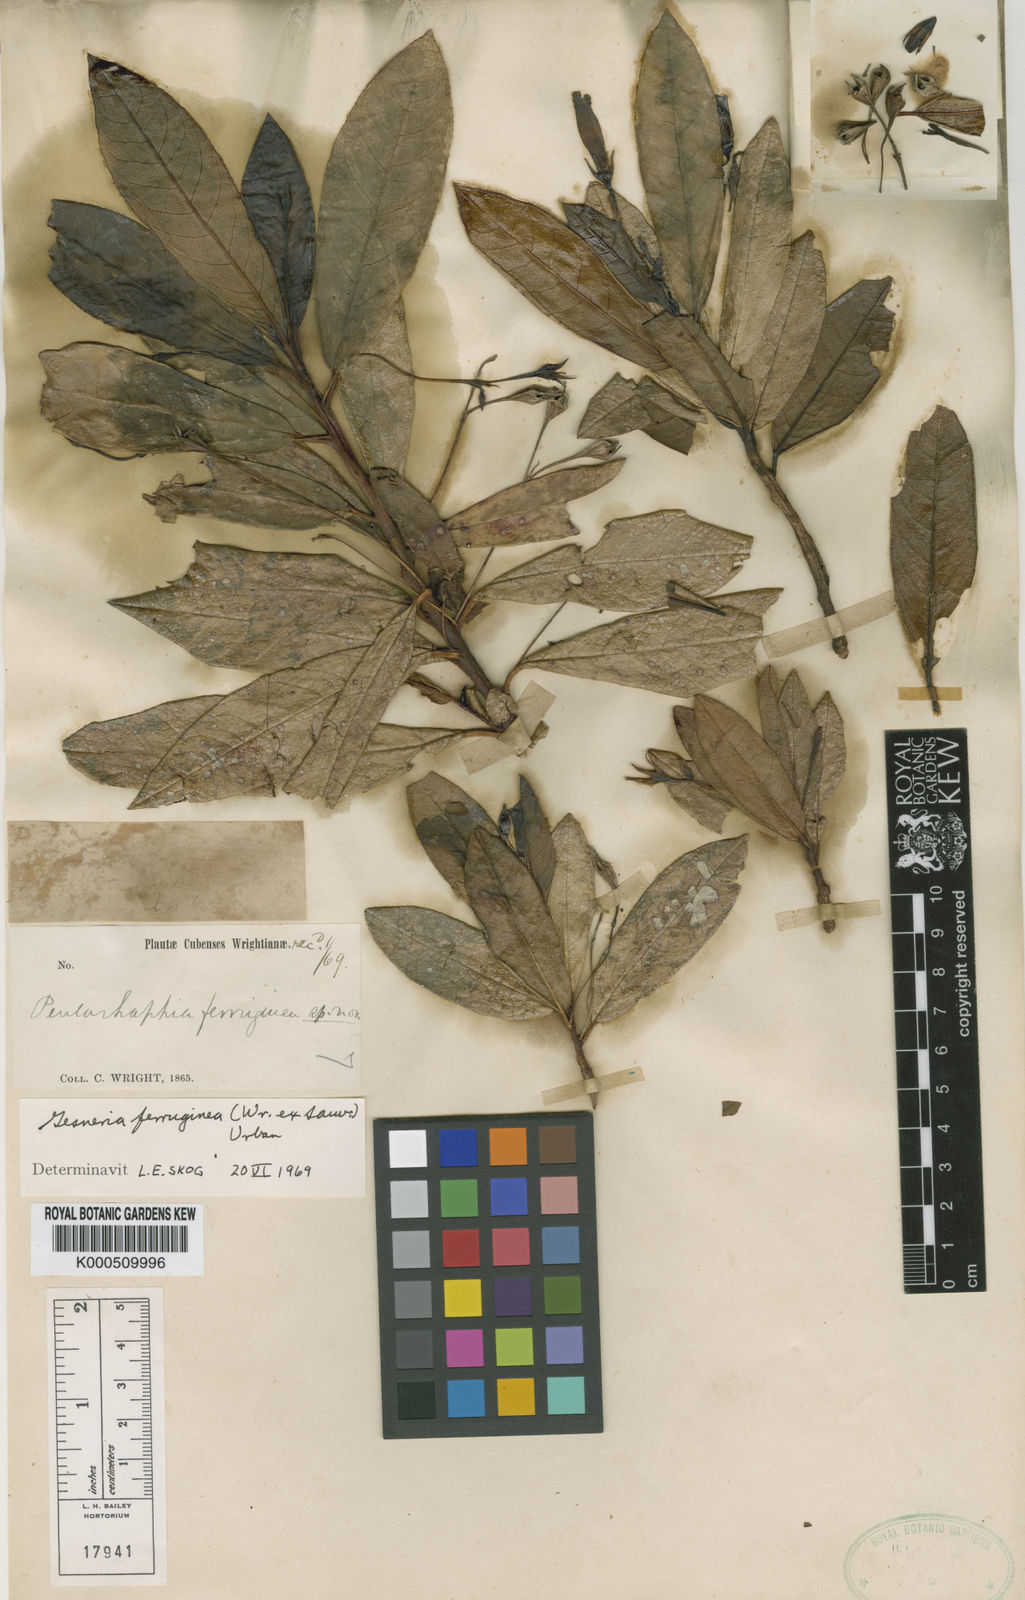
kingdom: Plantae
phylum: Tracheophyta
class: Magnoliopsida
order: Lamiales
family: Gesneriaceae
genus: Gesneria
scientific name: Gesneria ferruginea
